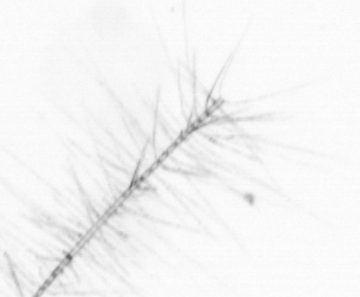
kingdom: Chromista
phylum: Ochrophyta
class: Bacillariophyceae
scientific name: Bacillariophyceae
